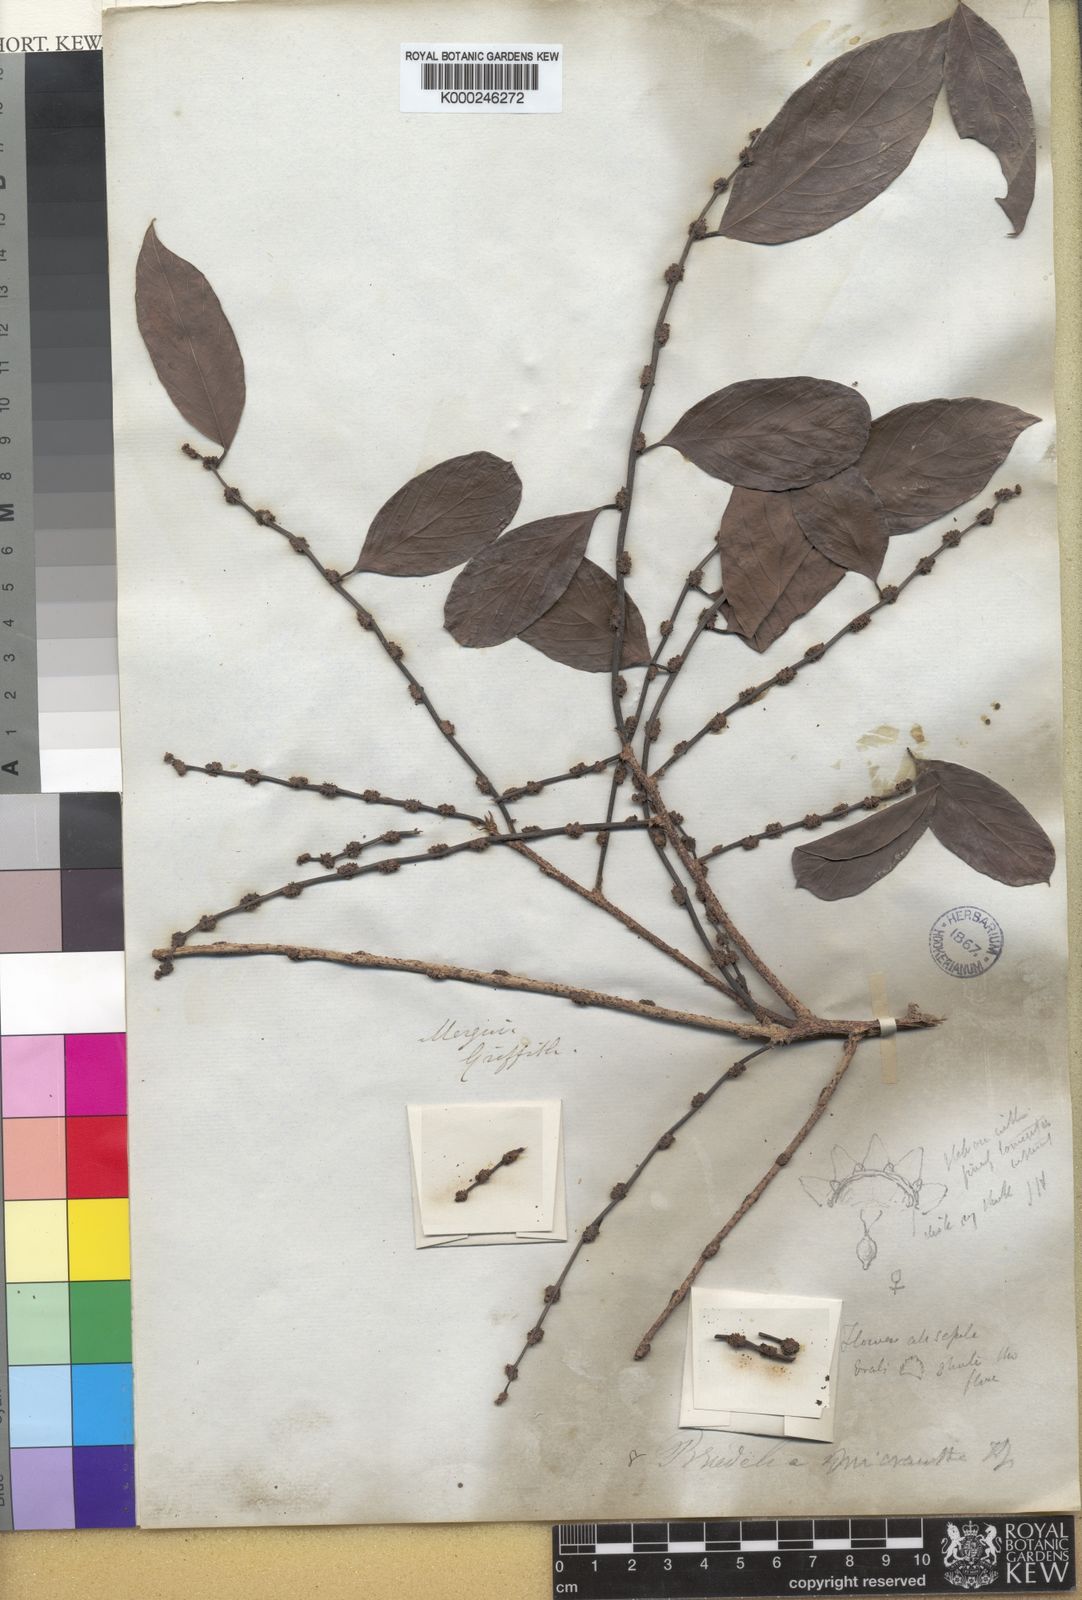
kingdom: Plantae
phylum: Tracheophyta
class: Magnoliopsida
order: Malpighiales
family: Phyllanthaceae
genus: Bridelia
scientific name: Bridelia insulana
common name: Grey-birch
